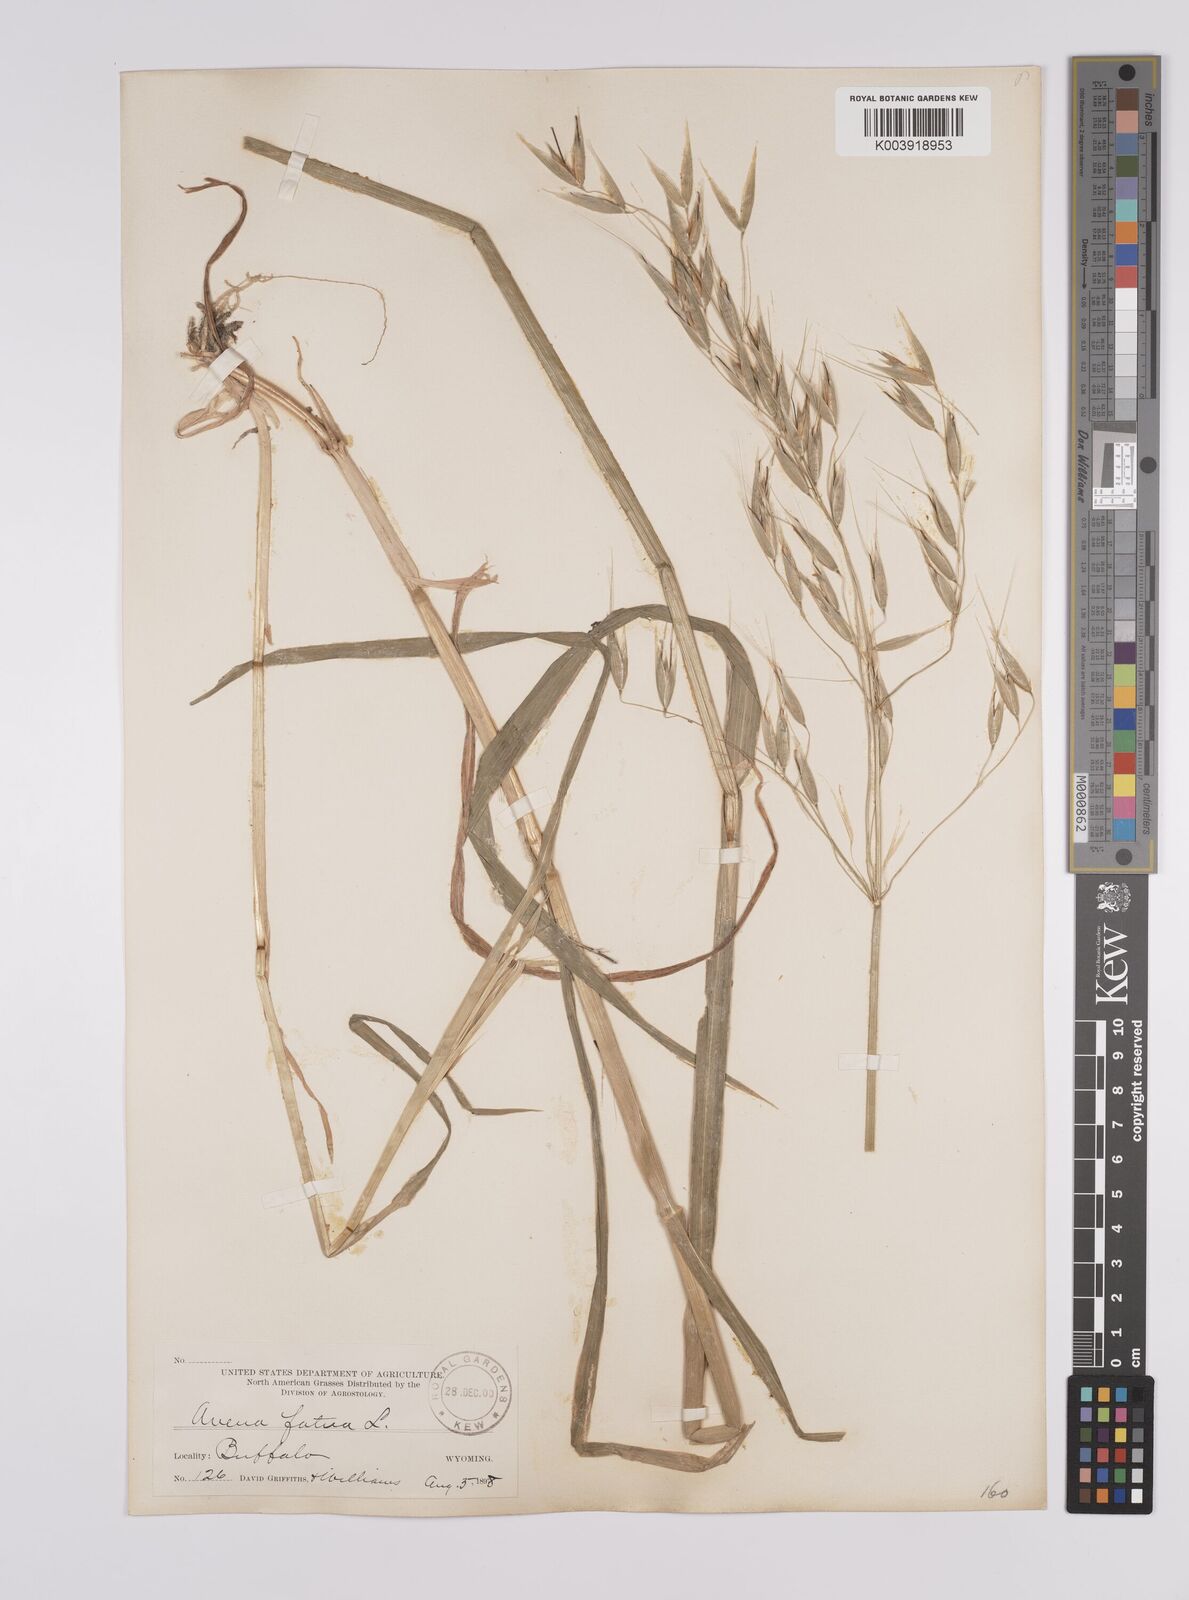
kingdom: Plantae
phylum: Tracheophyta
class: Liliopsida
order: Poales
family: Poaceae
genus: Avena
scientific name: Avena fatua
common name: Wild oat
